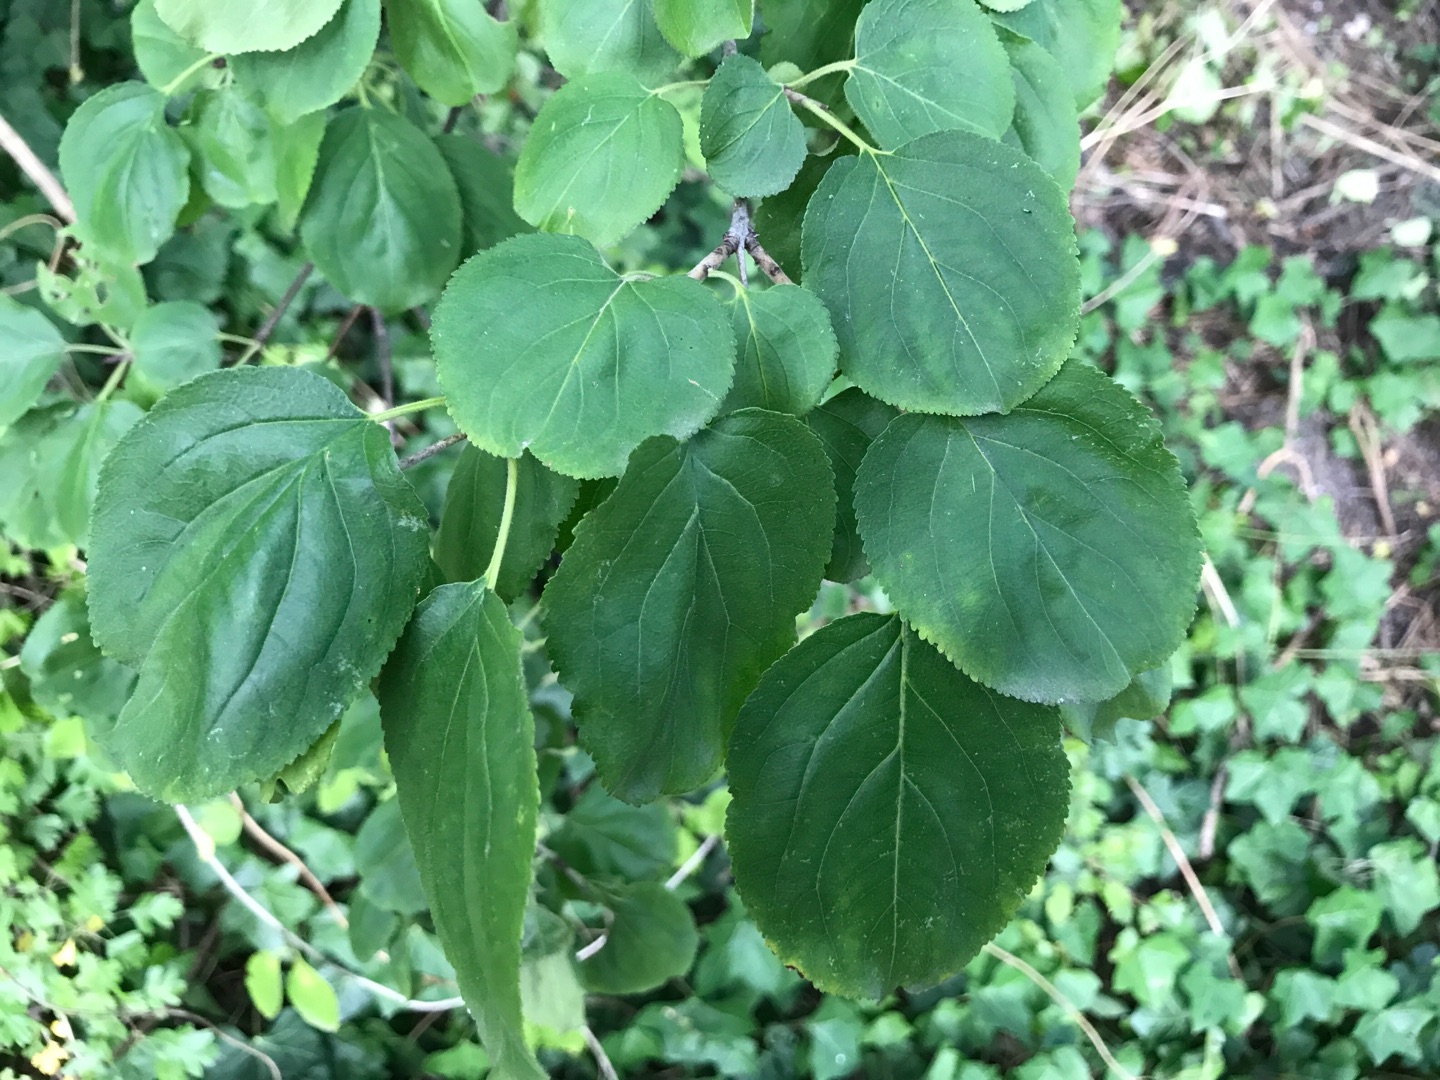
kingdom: Plantae
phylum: Tracheophyta
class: Magnoliopsida
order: Rosales
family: Rhamnaceae
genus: Rhamnus
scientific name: Rhamnus cathartica
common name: Vrietorn
